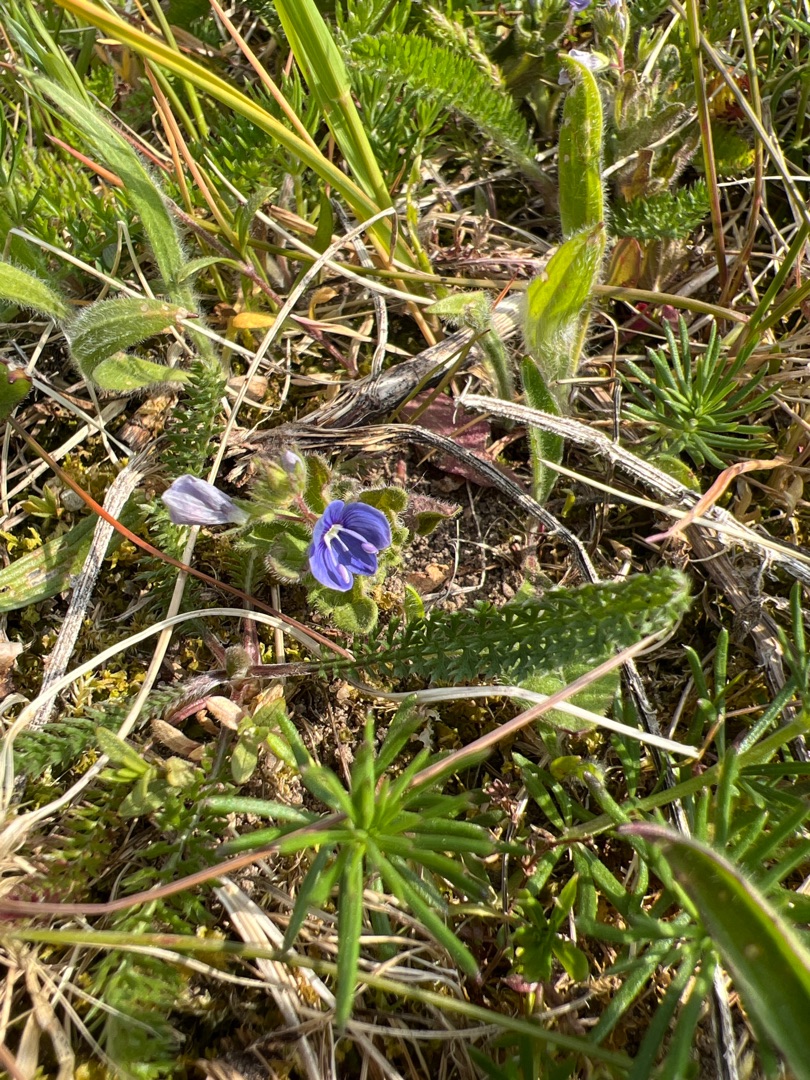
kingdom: Plantae
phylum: Tracheophyta
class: Magnoliopsida
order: Lamiales
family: Plantaginaceae
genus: Veronica
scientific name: Veronica chamaedrys
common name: Tveskægget ærenpris
